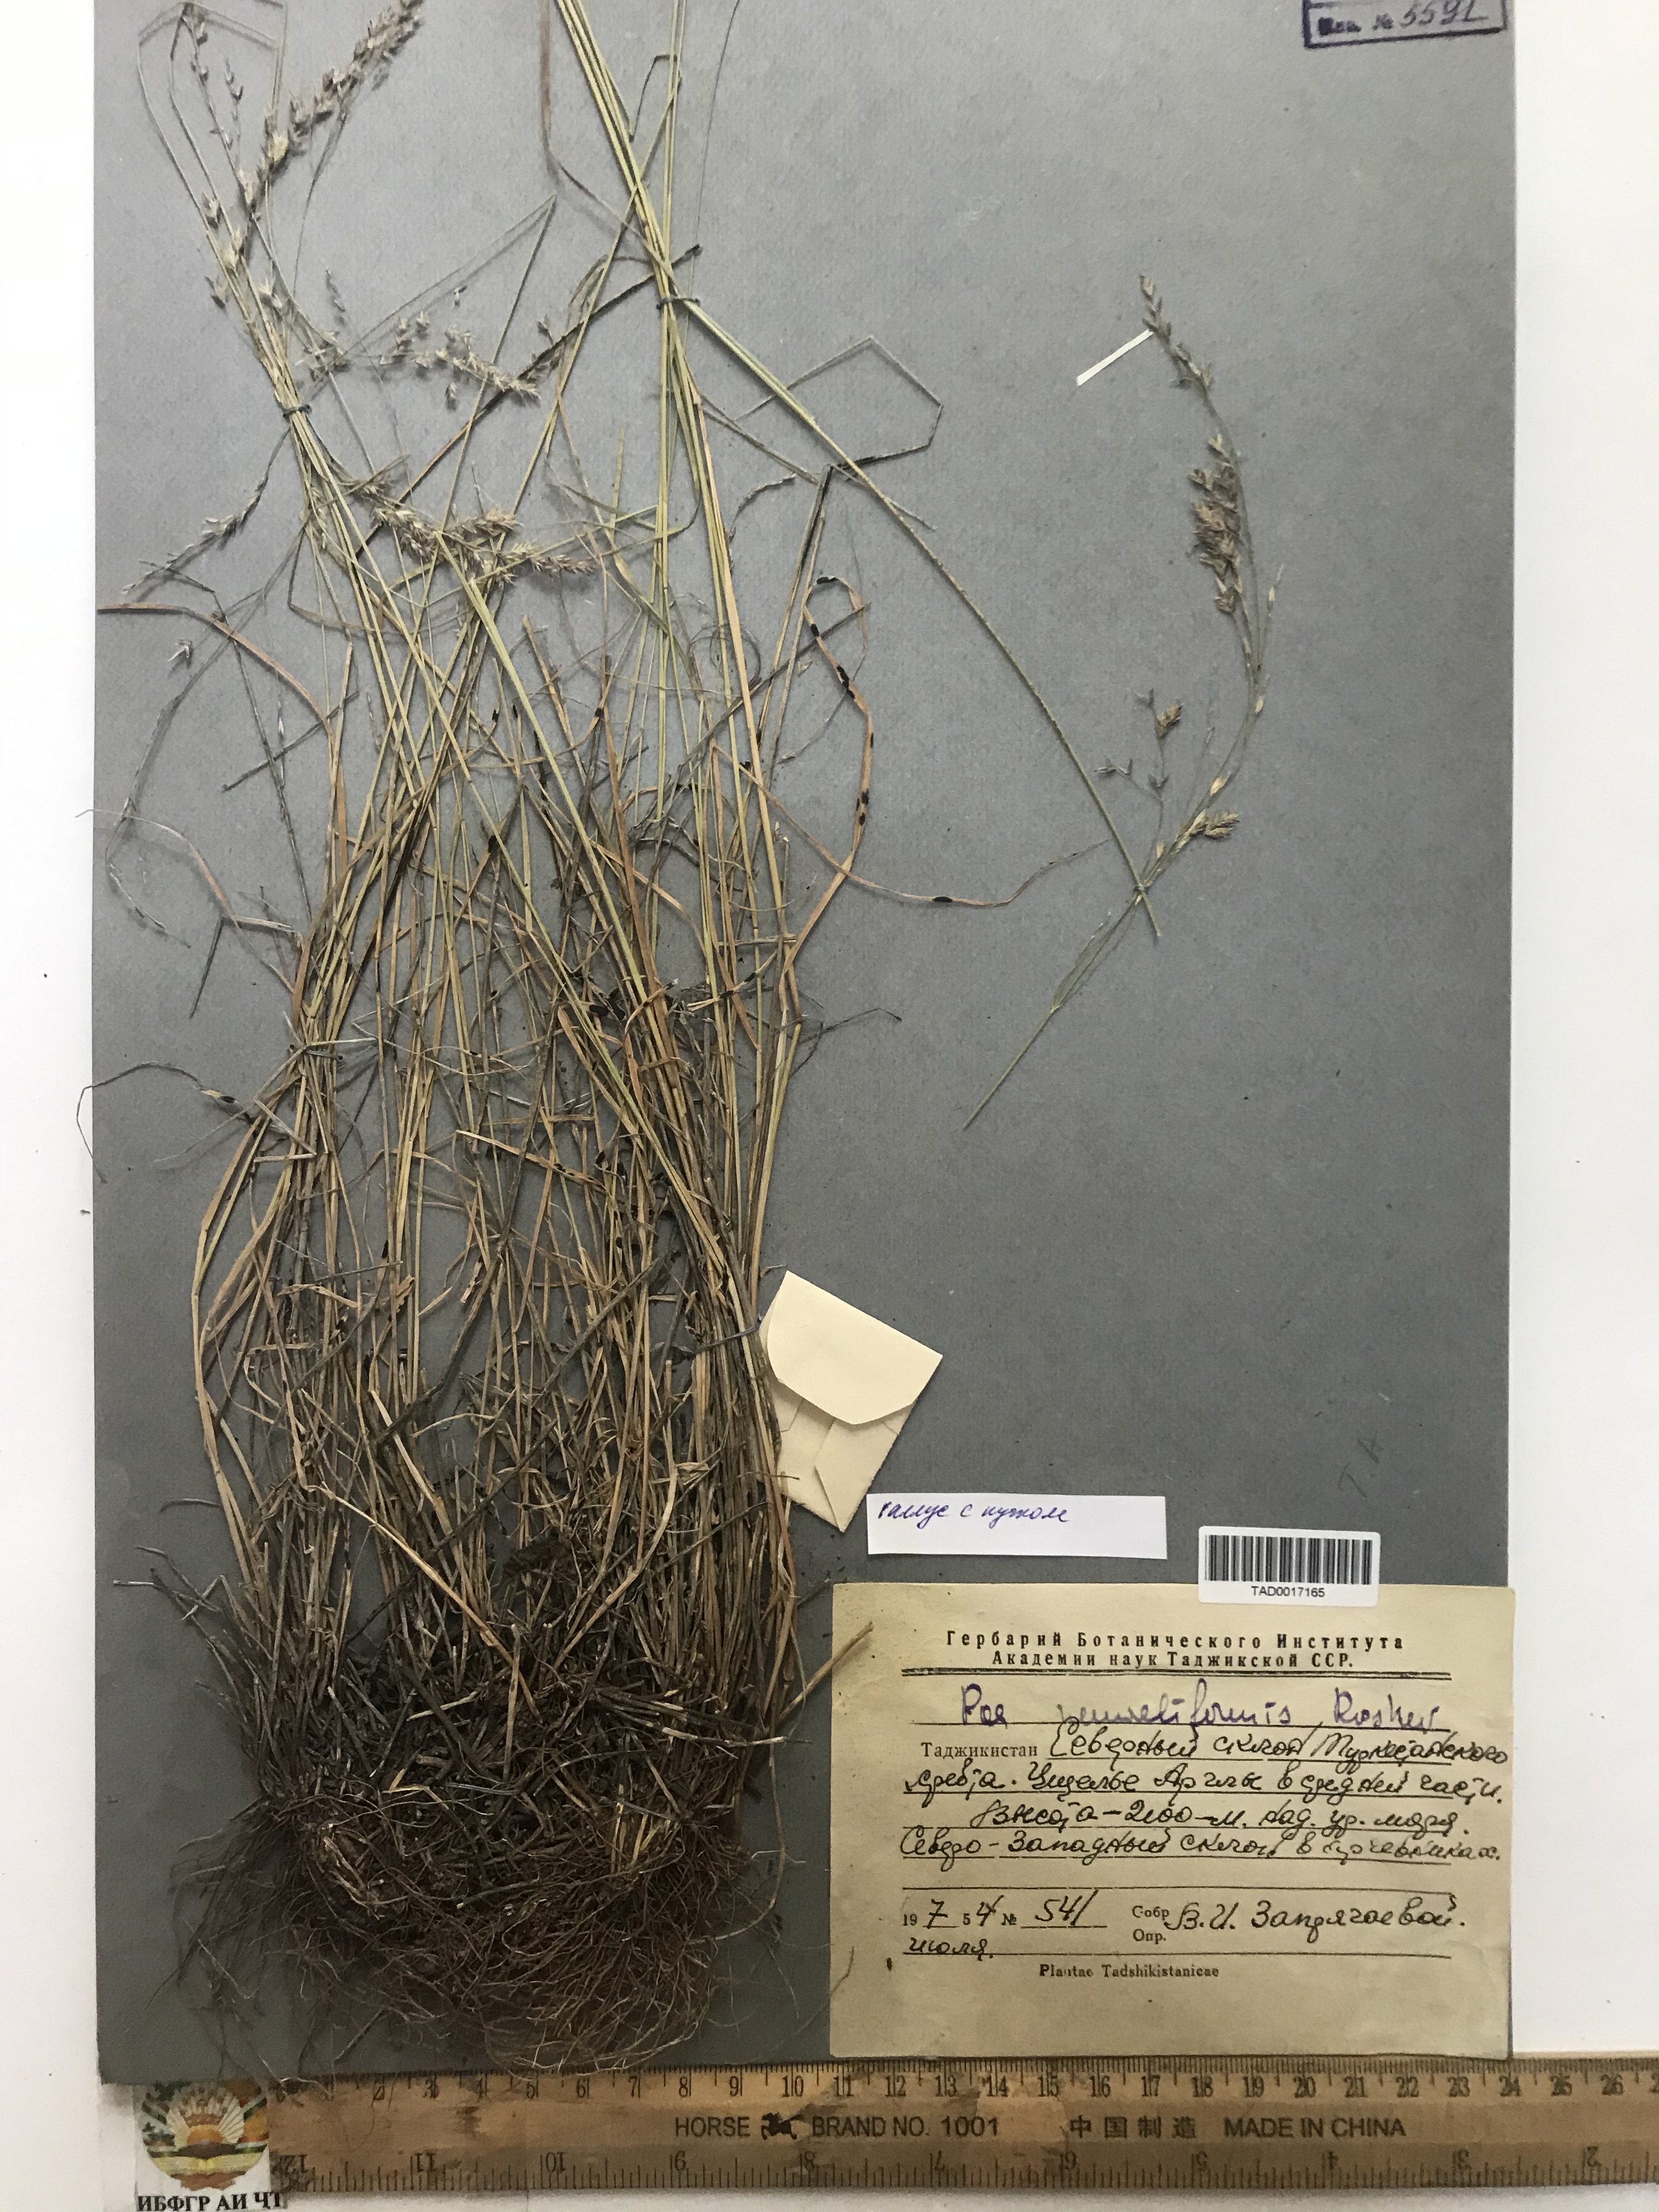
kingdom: Plantae
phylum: Tracheophyta
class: Liliopsida
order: Poales
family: Poaceae
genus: Poa
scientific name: Poa urssulensis
